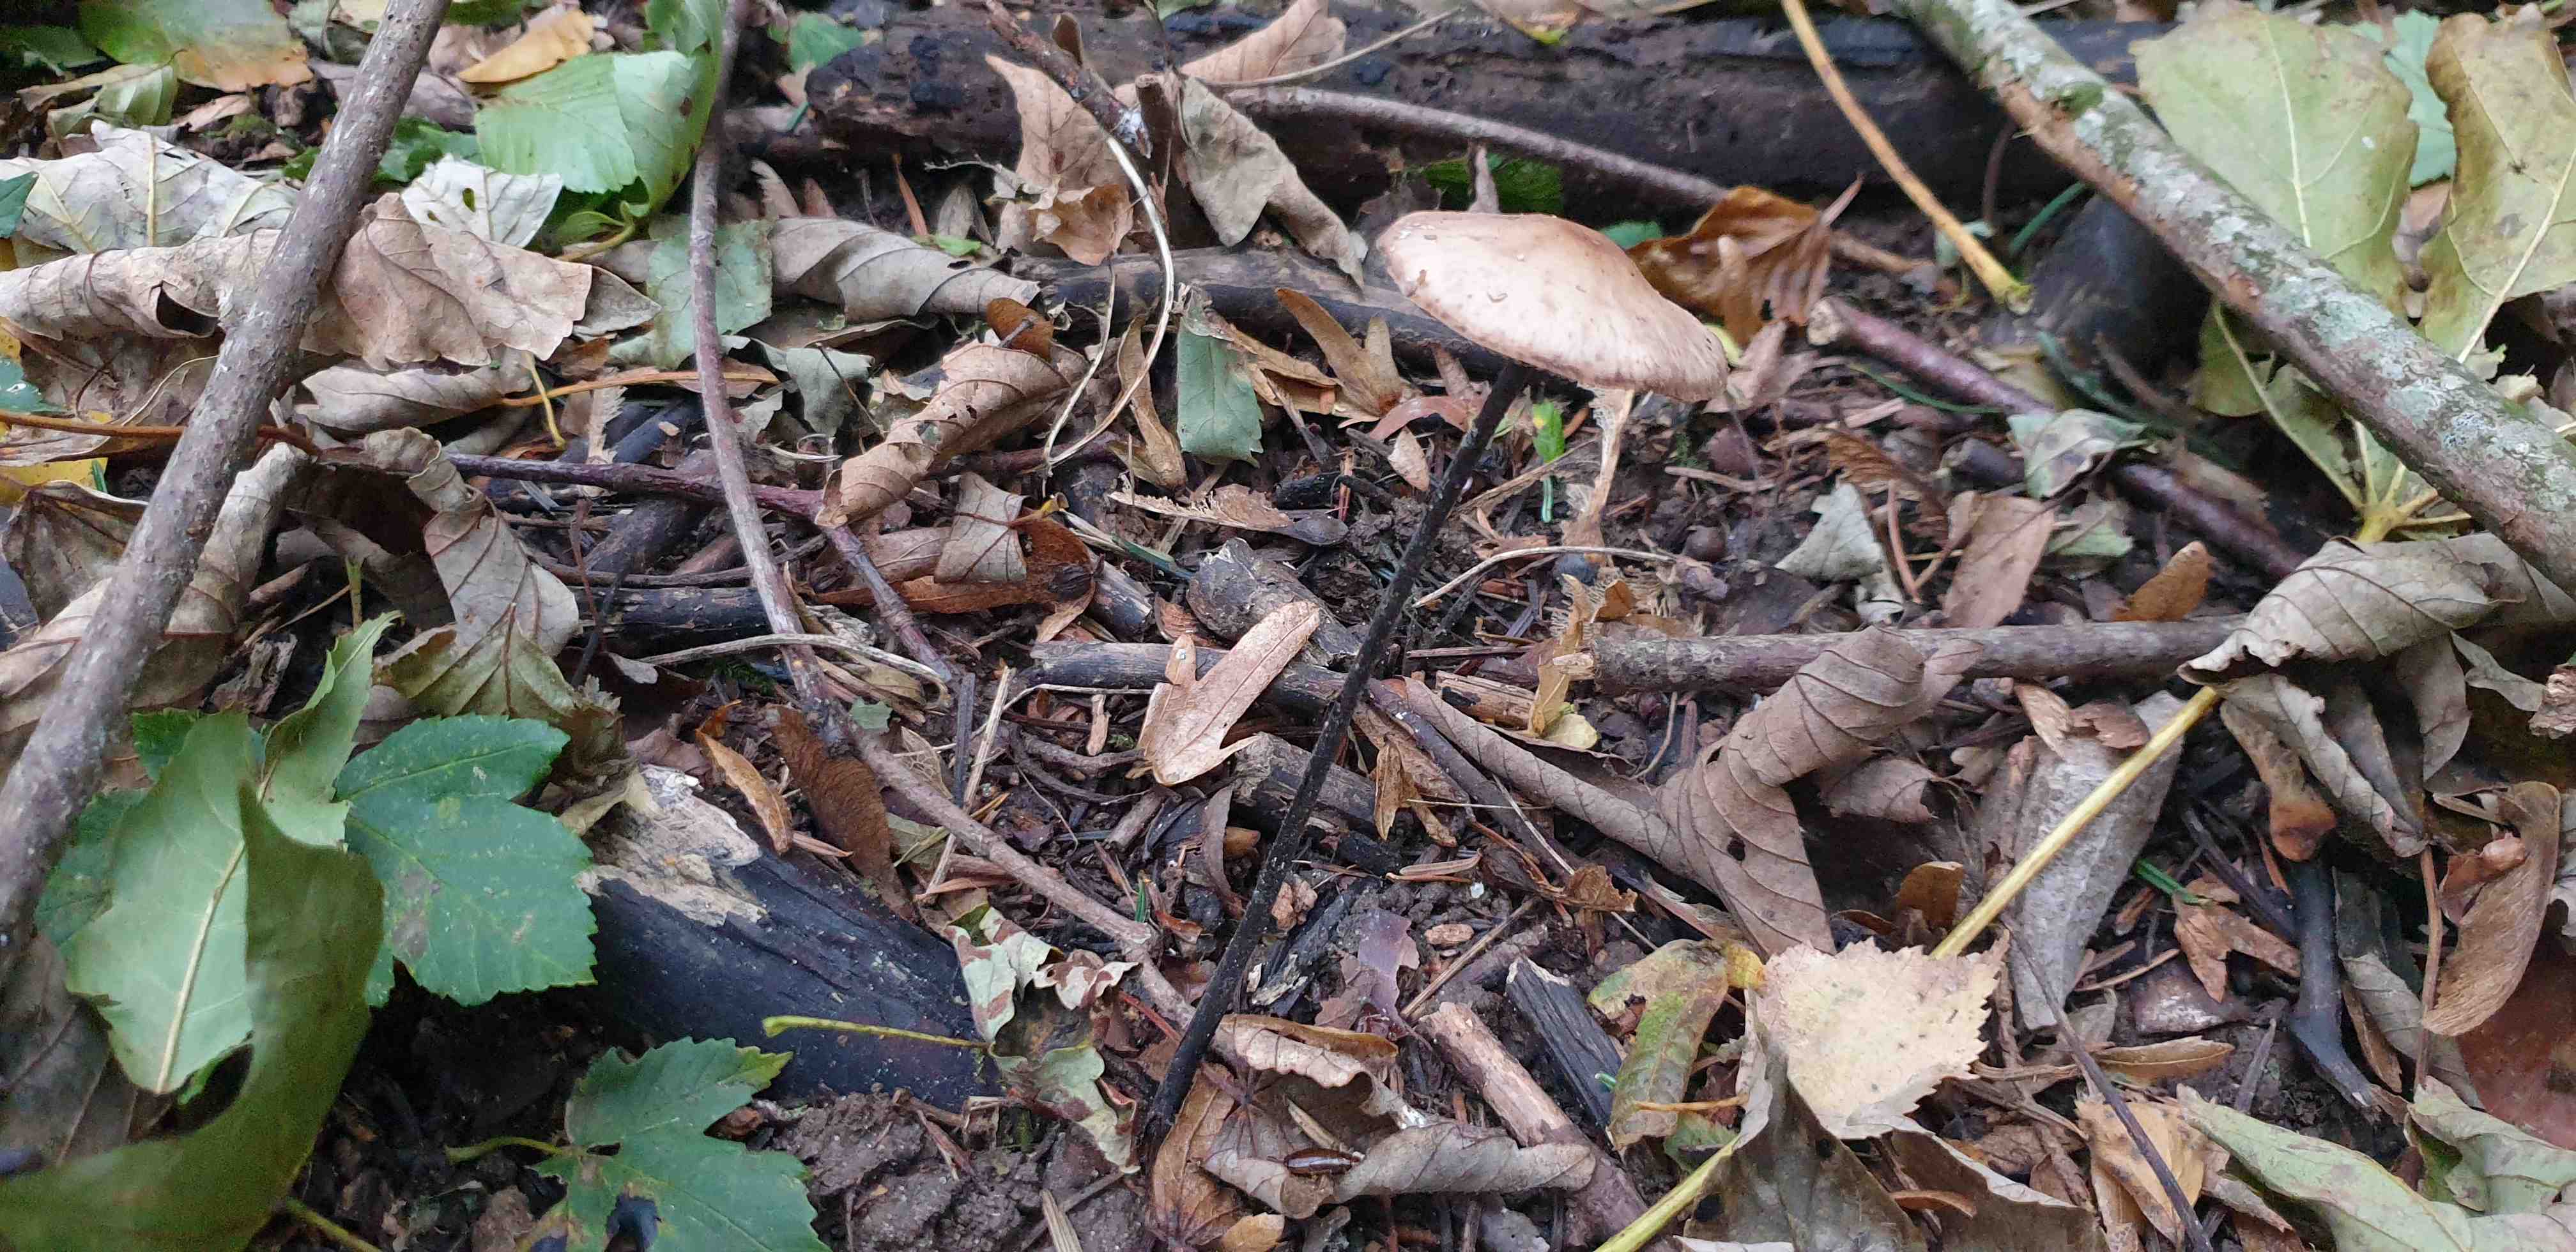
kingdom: Fungi
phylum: Basidiomycota
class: Agaricomycetes
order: Agaricales
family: Omphalotaceae
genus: Mycetinis
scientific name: Mycetinis alliaceus
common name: stor løghat
